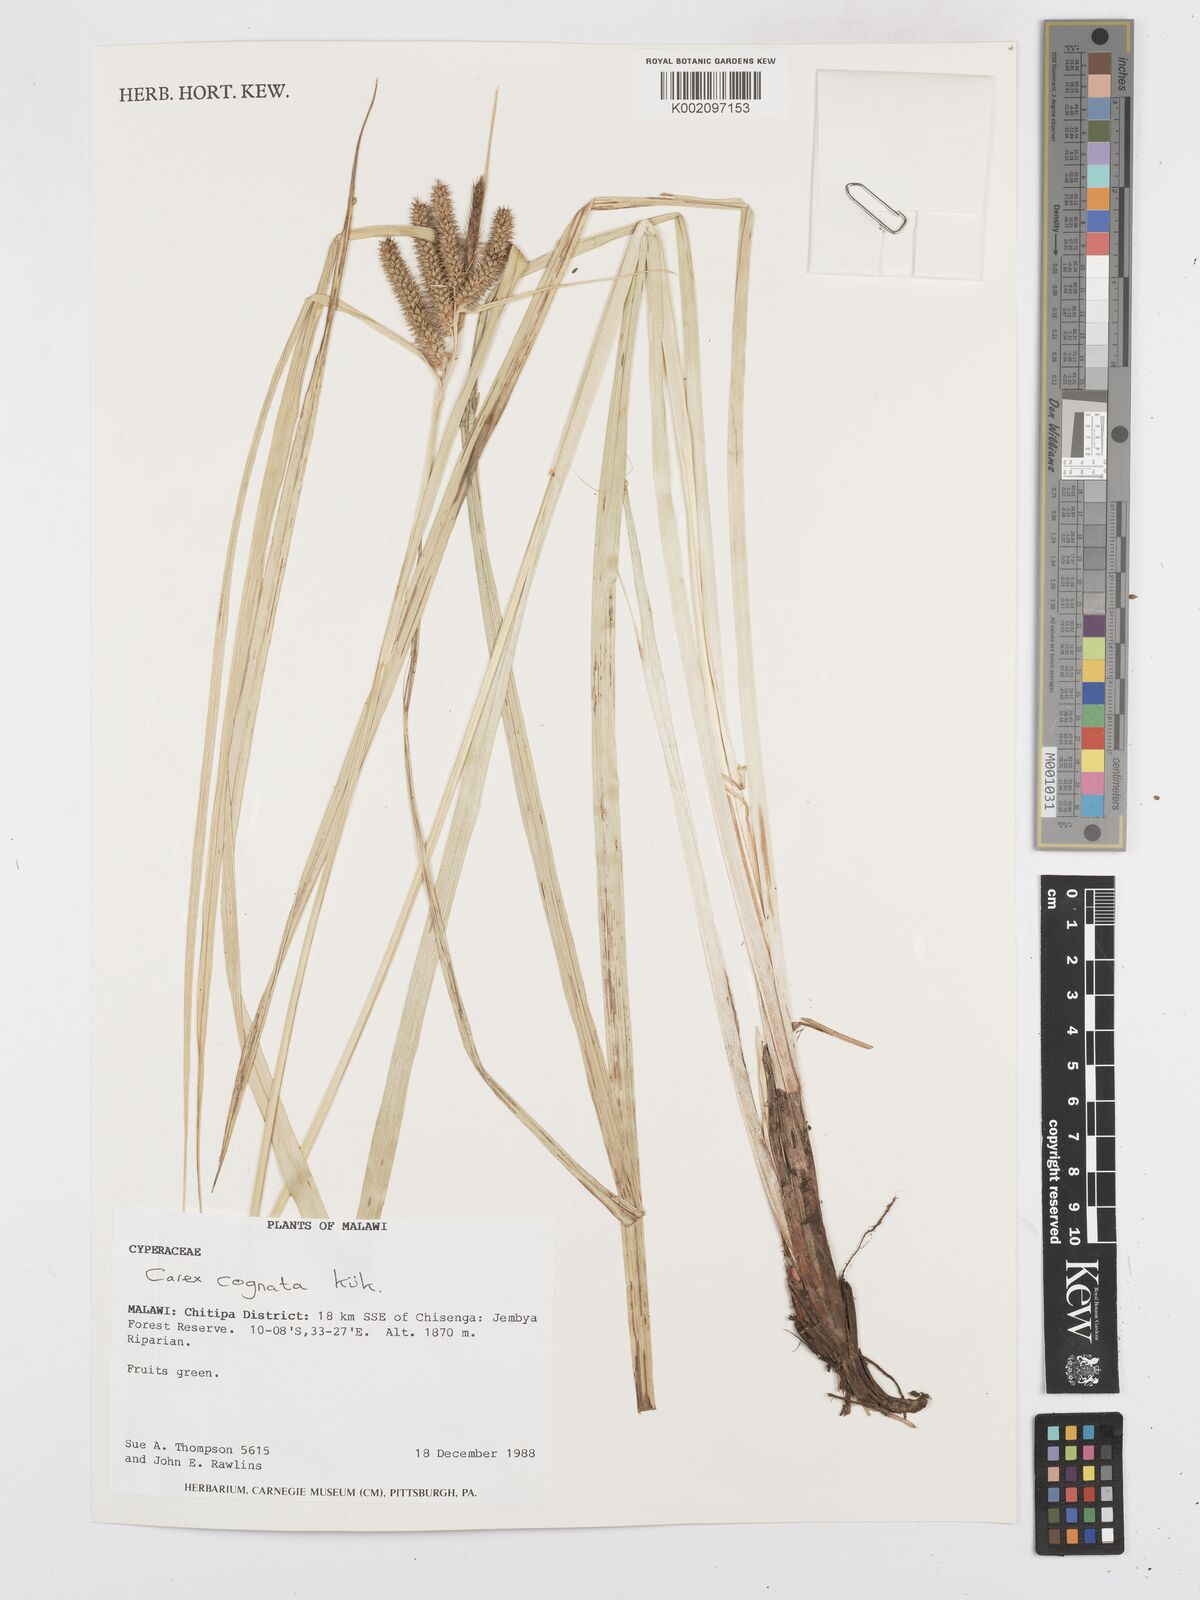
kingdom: Plantae
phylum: Tracheophyta
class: Liliopsida
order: Poales
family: Cyperaceae
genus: Carex
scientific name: Carex cognata
